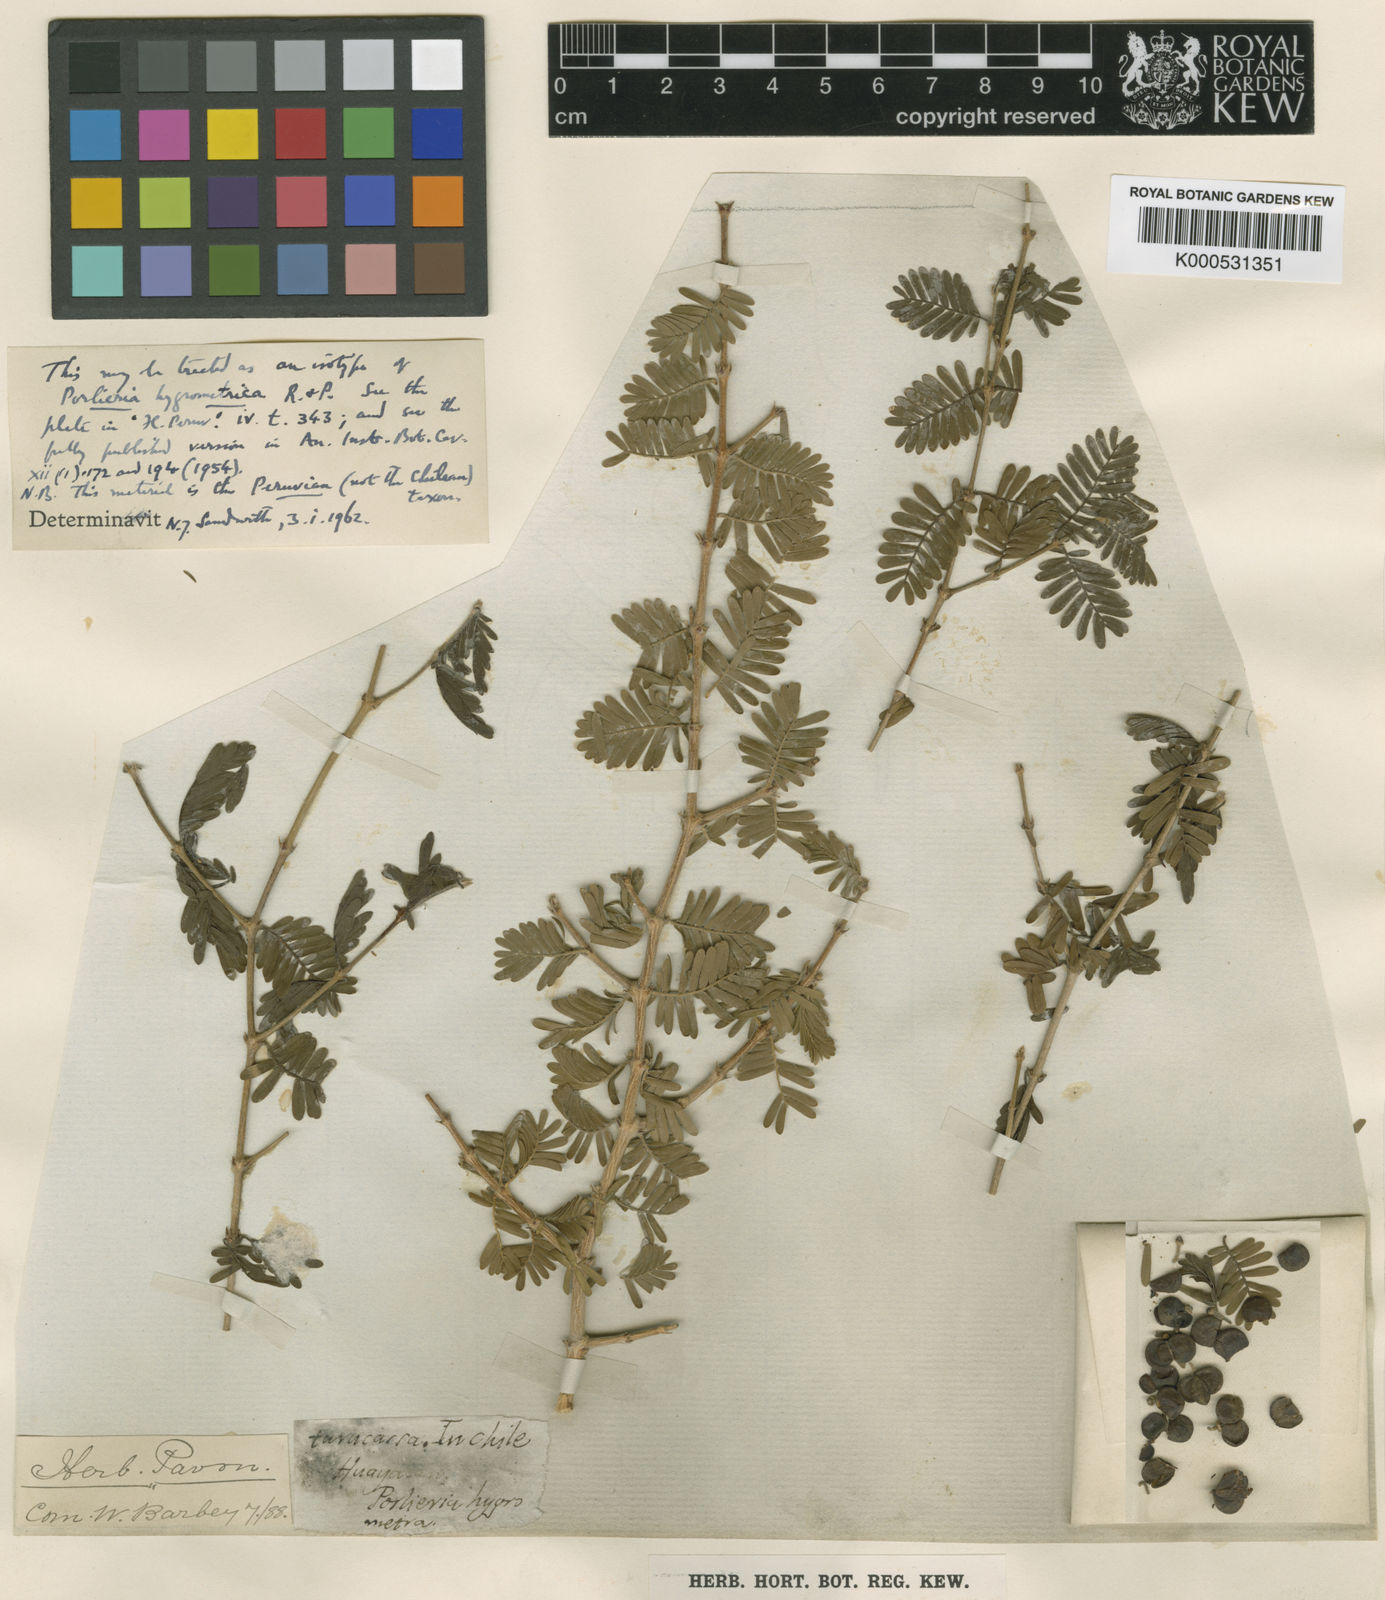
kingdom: Plantae
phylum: Tracheophyta
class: Magnoliopsida
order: Zygophyllales
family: Zygophyllaceae
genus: Porlieria
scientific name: Porlieria hygrometra
